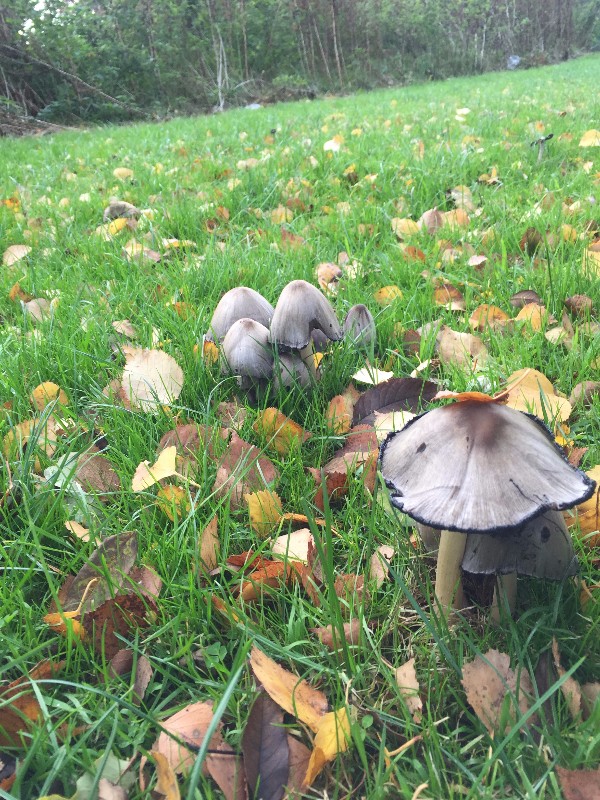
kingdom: Fungi
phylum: Basidiomycota
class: Agaricomycetes
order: Agaricales
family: Psathyrellaceae
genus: Coprinopsis
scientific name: Coprinopsis atramentaria
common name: almindelig blækhat
